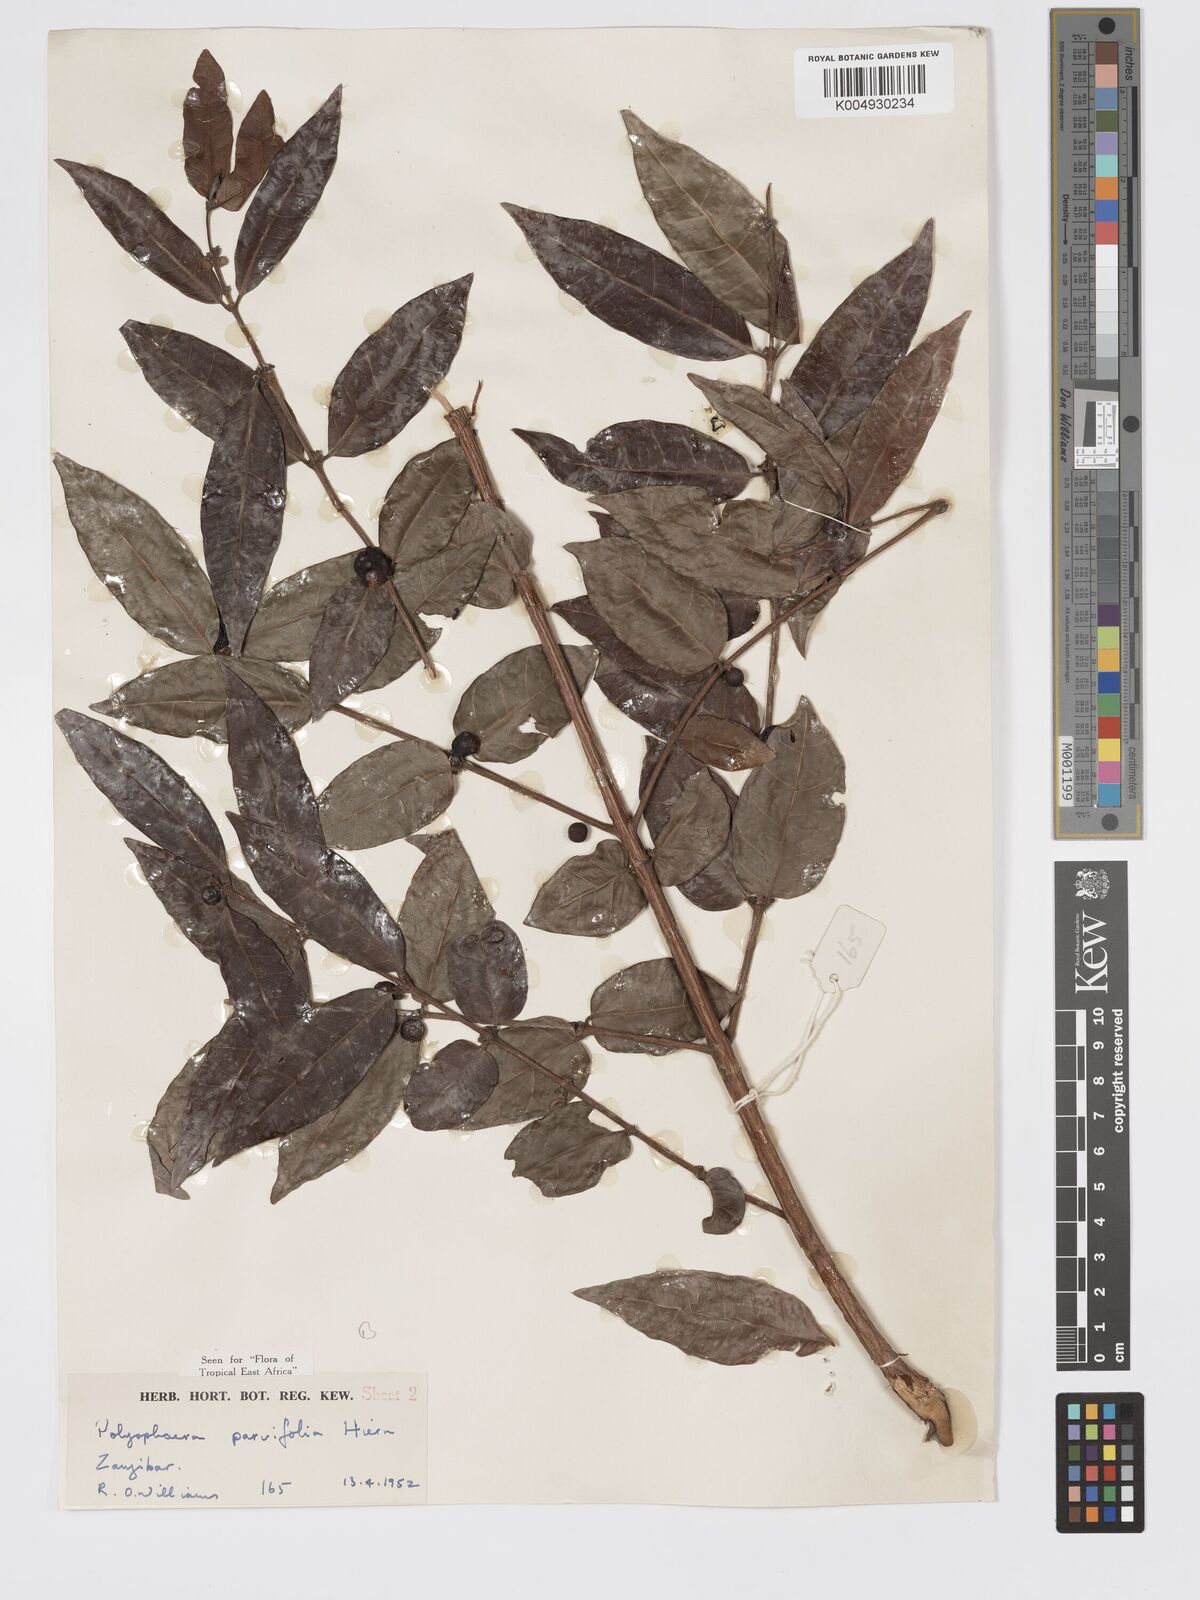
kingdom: Plantae
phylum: Tracheophyta
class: Magnoliopsida
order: Gentianales
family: Rubiaceae
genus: Polysphaeria
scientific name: Polysphaeria parvifolia
